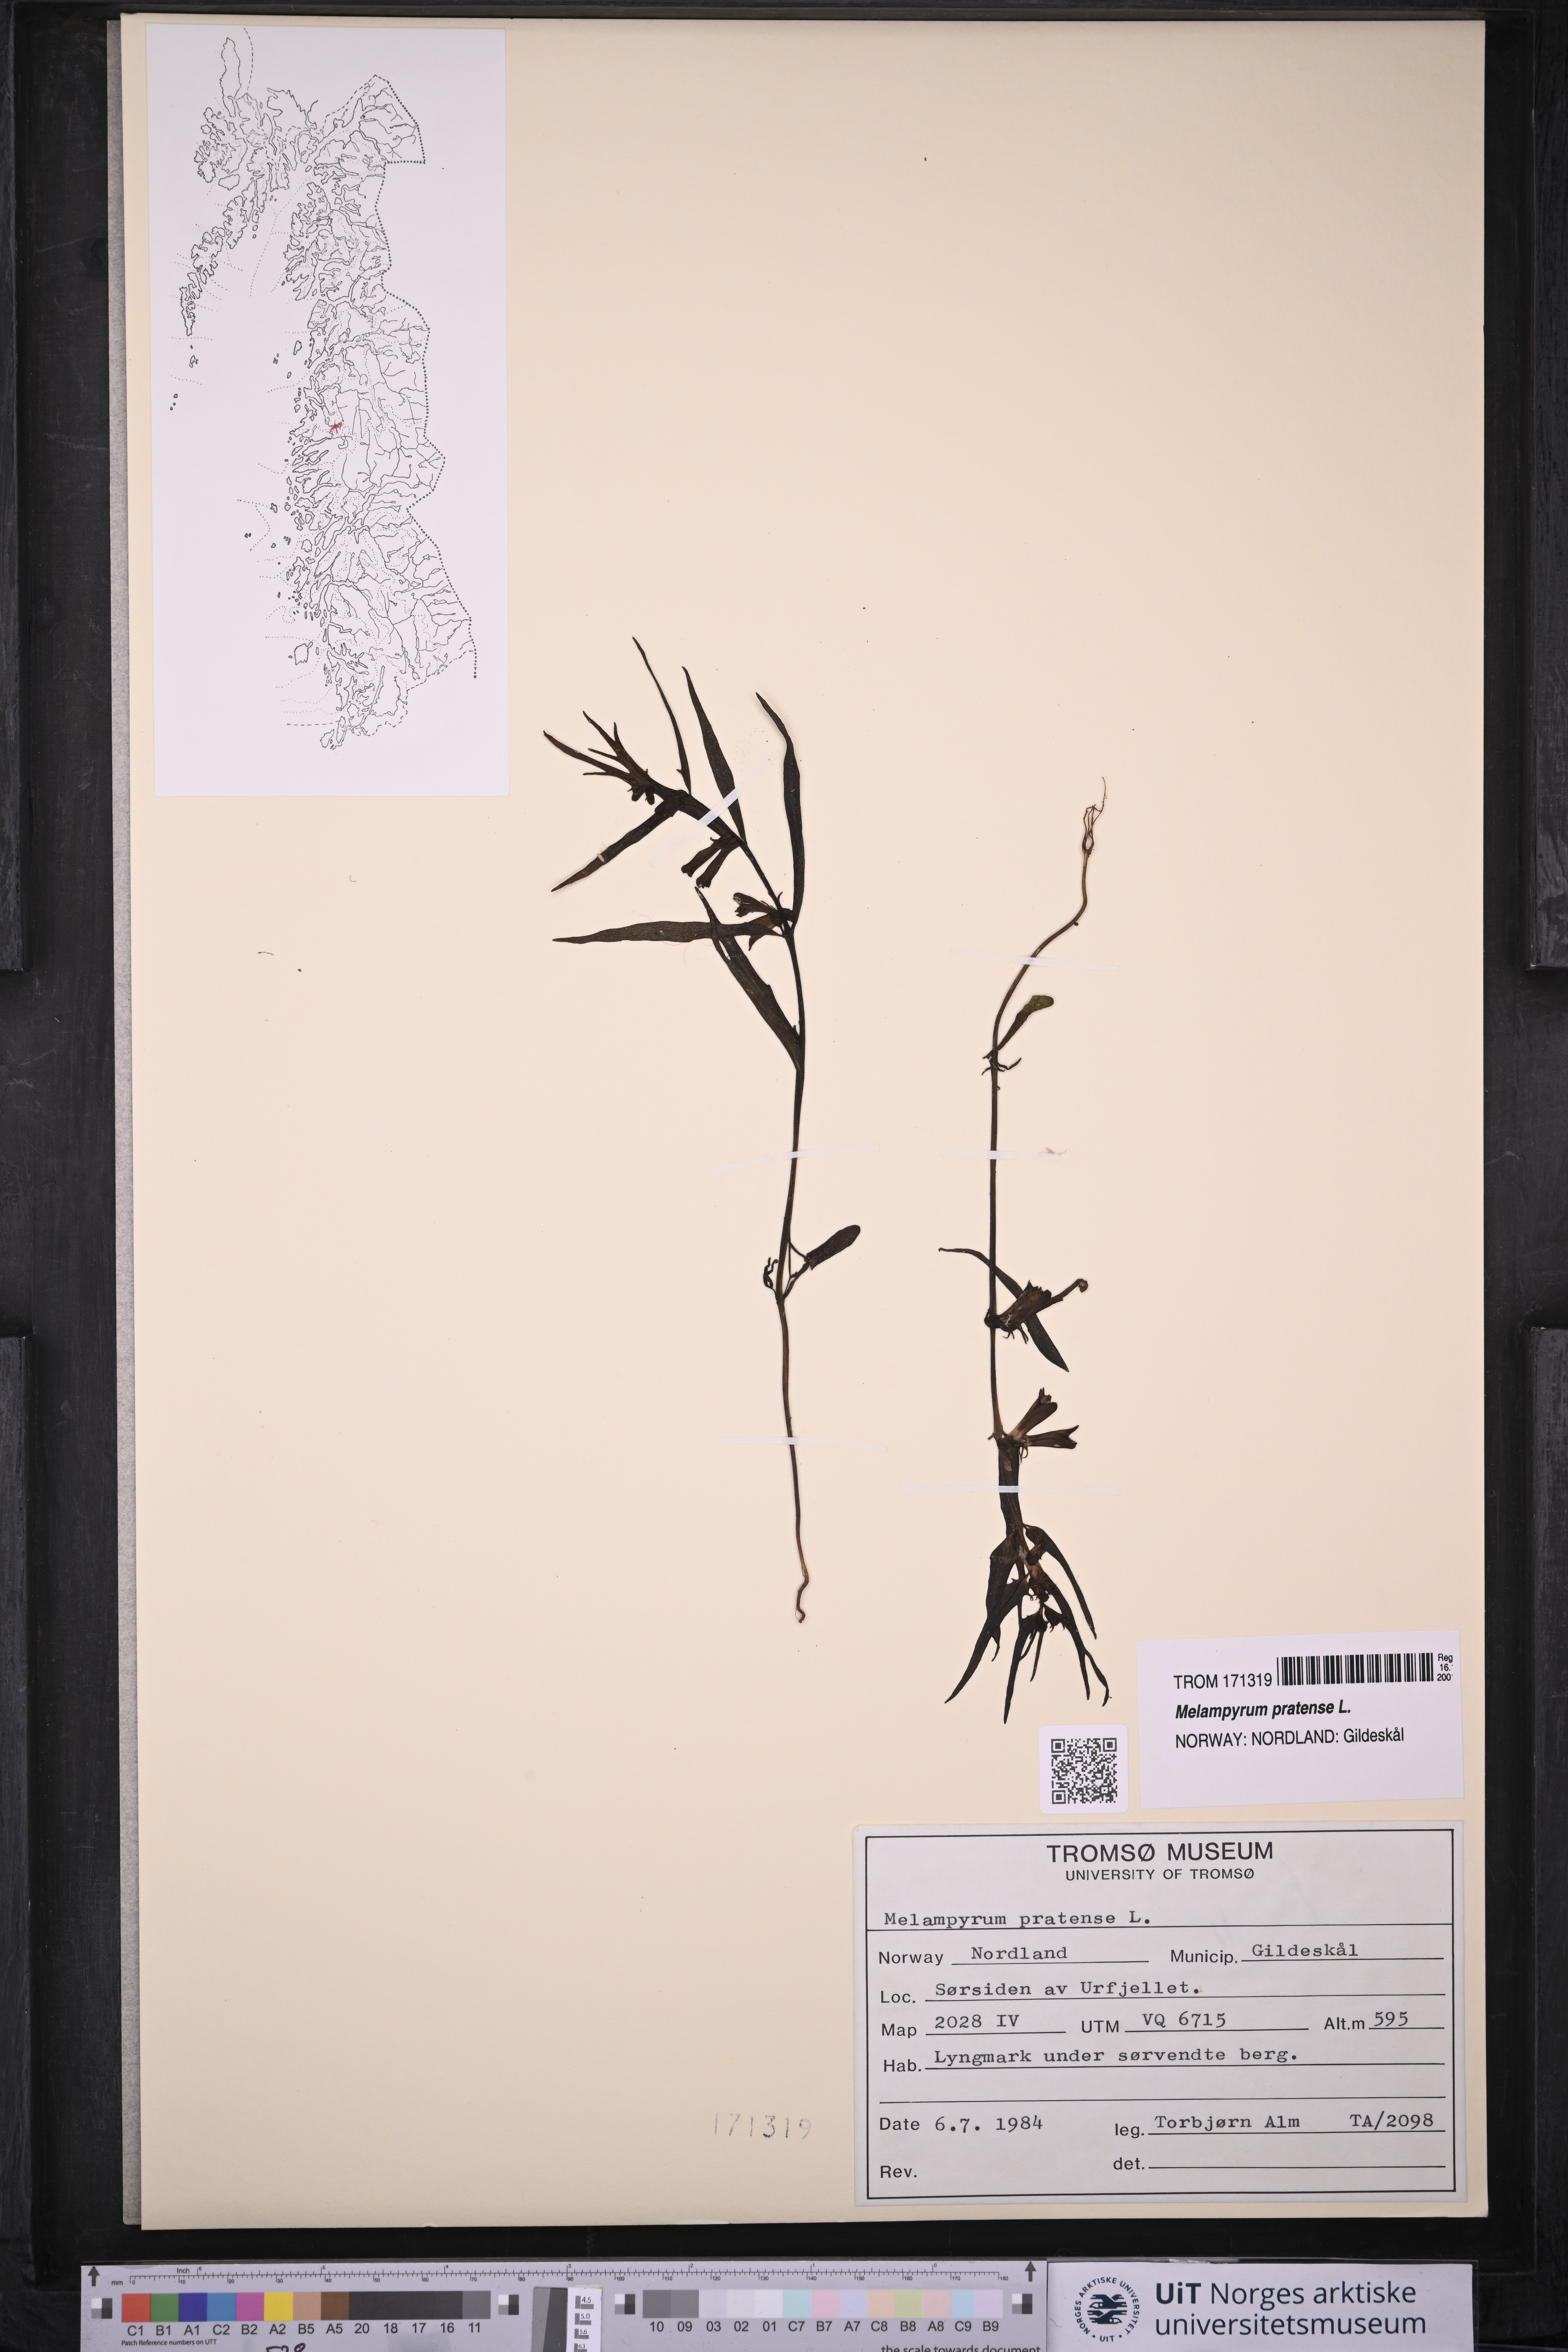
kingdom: Plantae
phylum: Tracheophyta
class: Magnoliopsida
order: Lamiales
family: Orobanchaceae
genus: Melampyrum
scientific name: Melampyrum pratense
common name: Common cow-wheat
